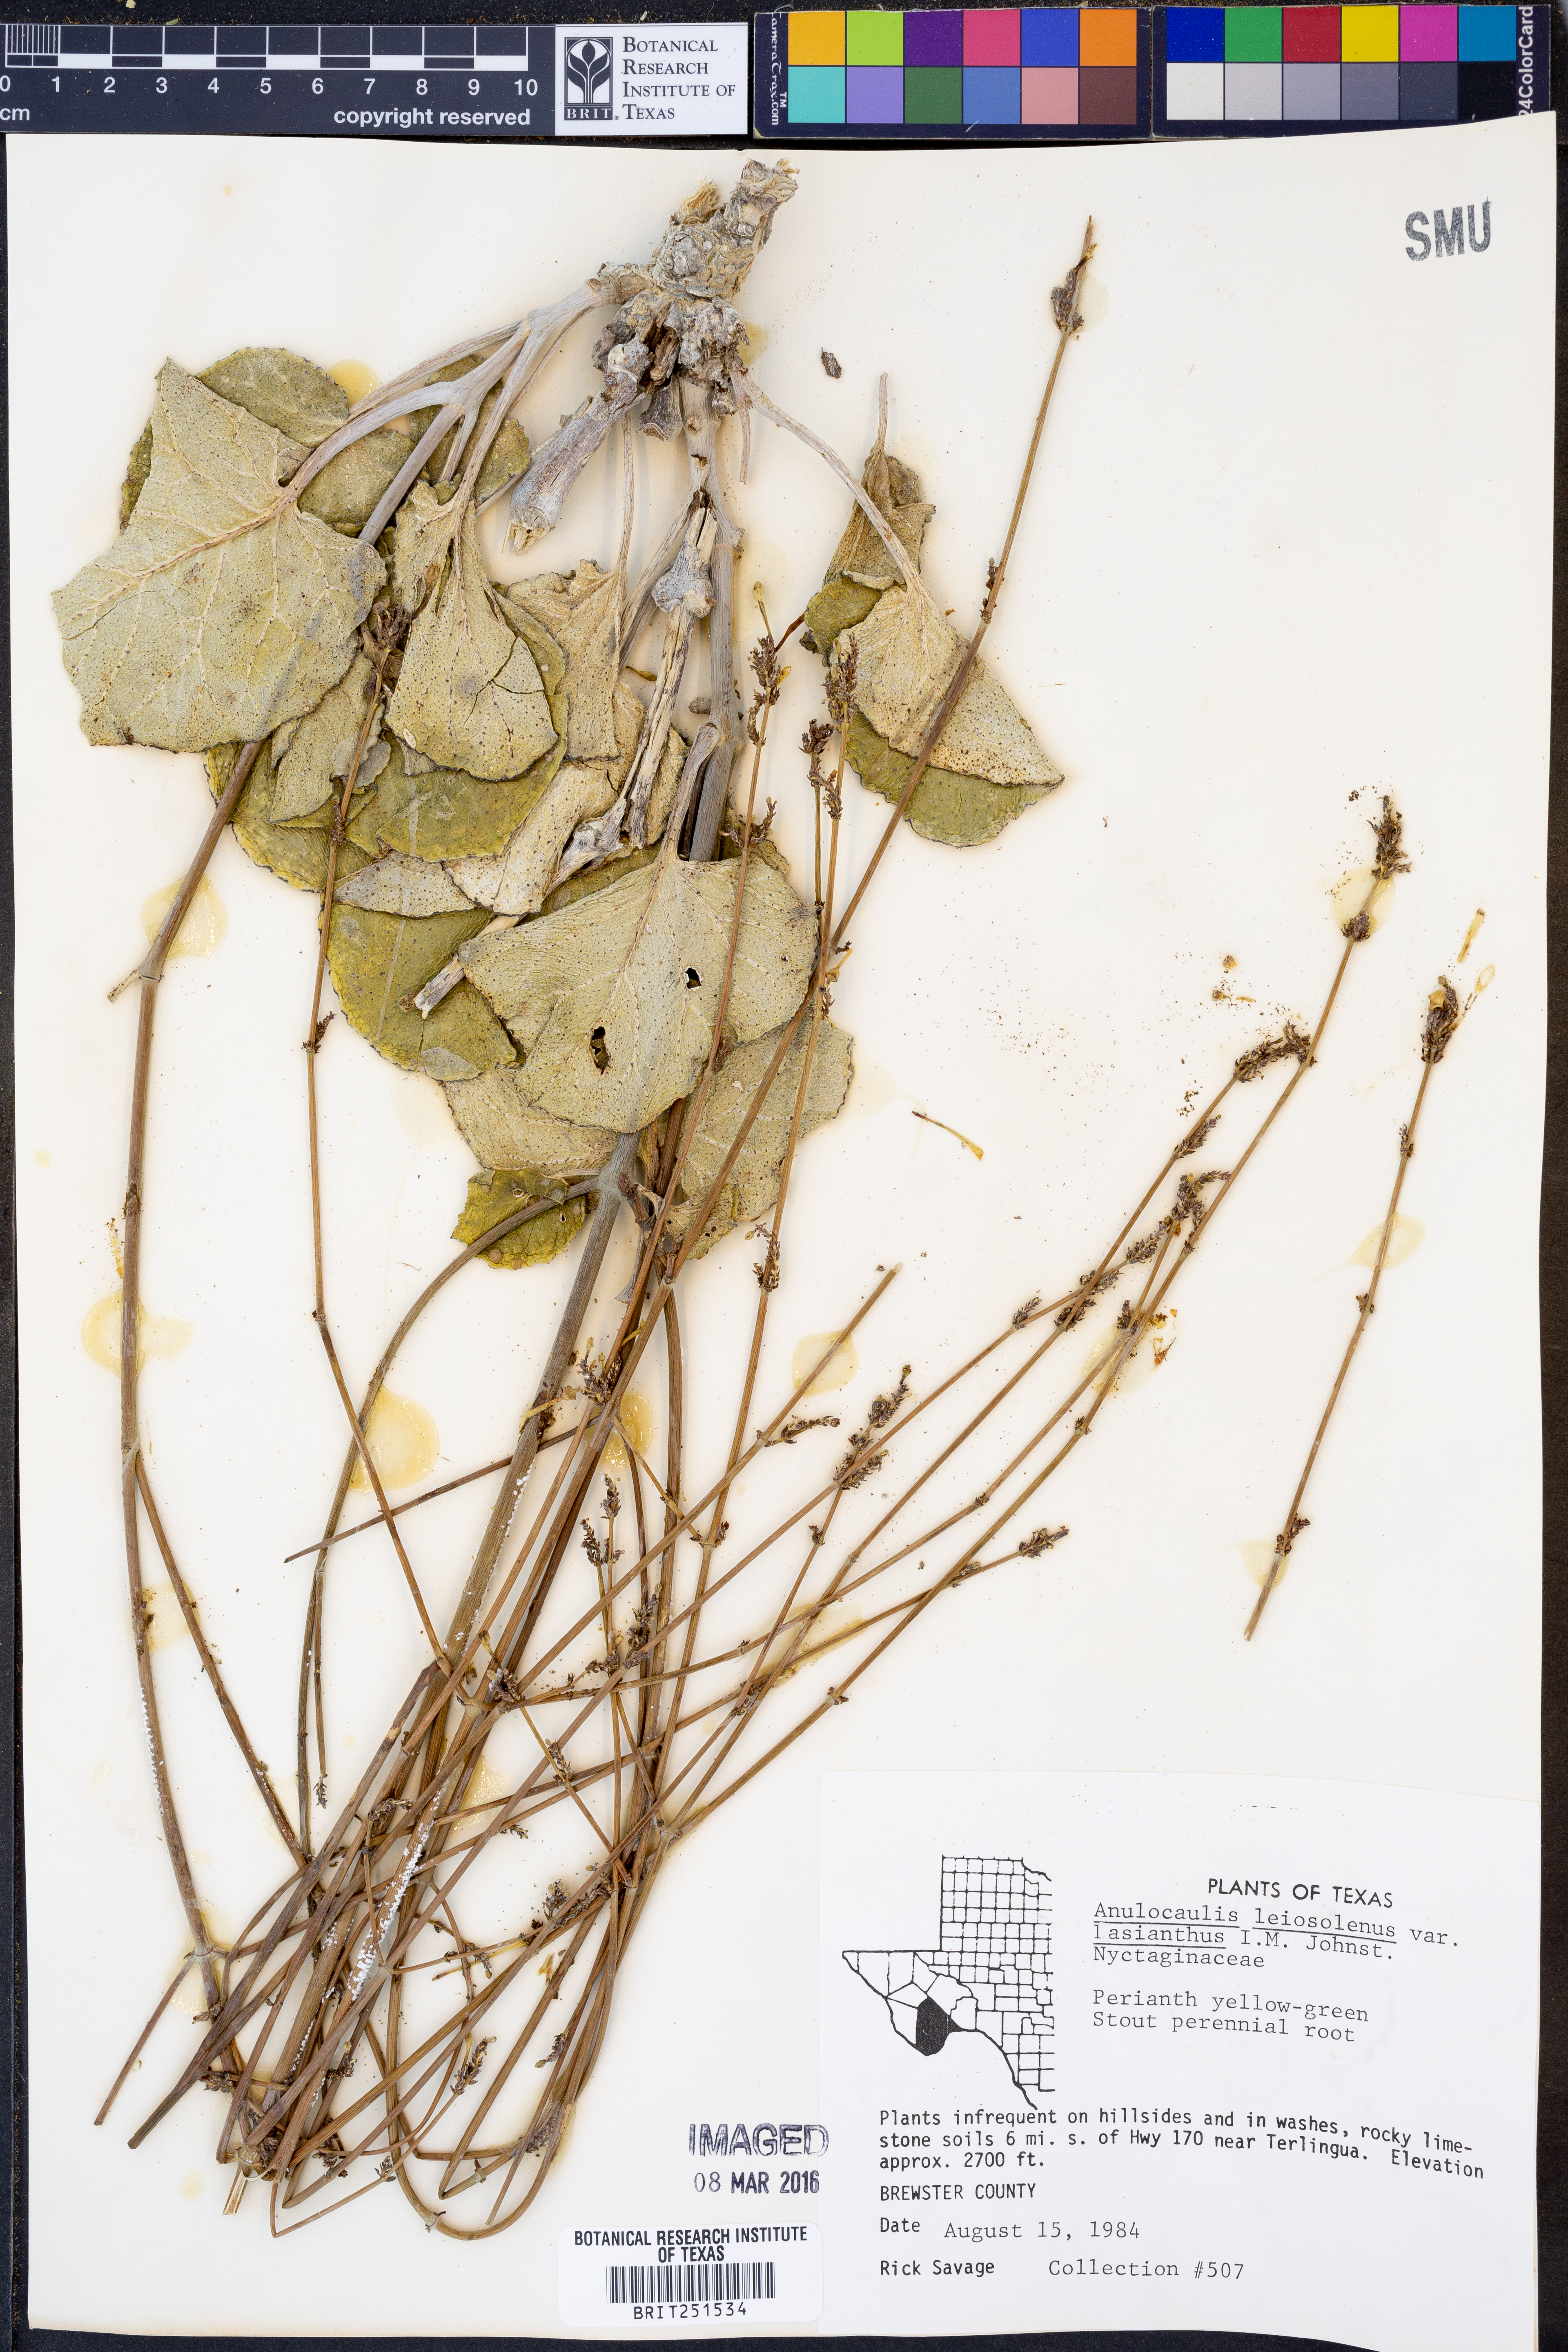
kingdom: Plantae
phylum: Tracheophyta
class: Magnoliopsida
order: Caryophyllales
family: Nyctaginaceae
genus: Anulocaulis
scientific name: Anulocaulis leiosolenus
